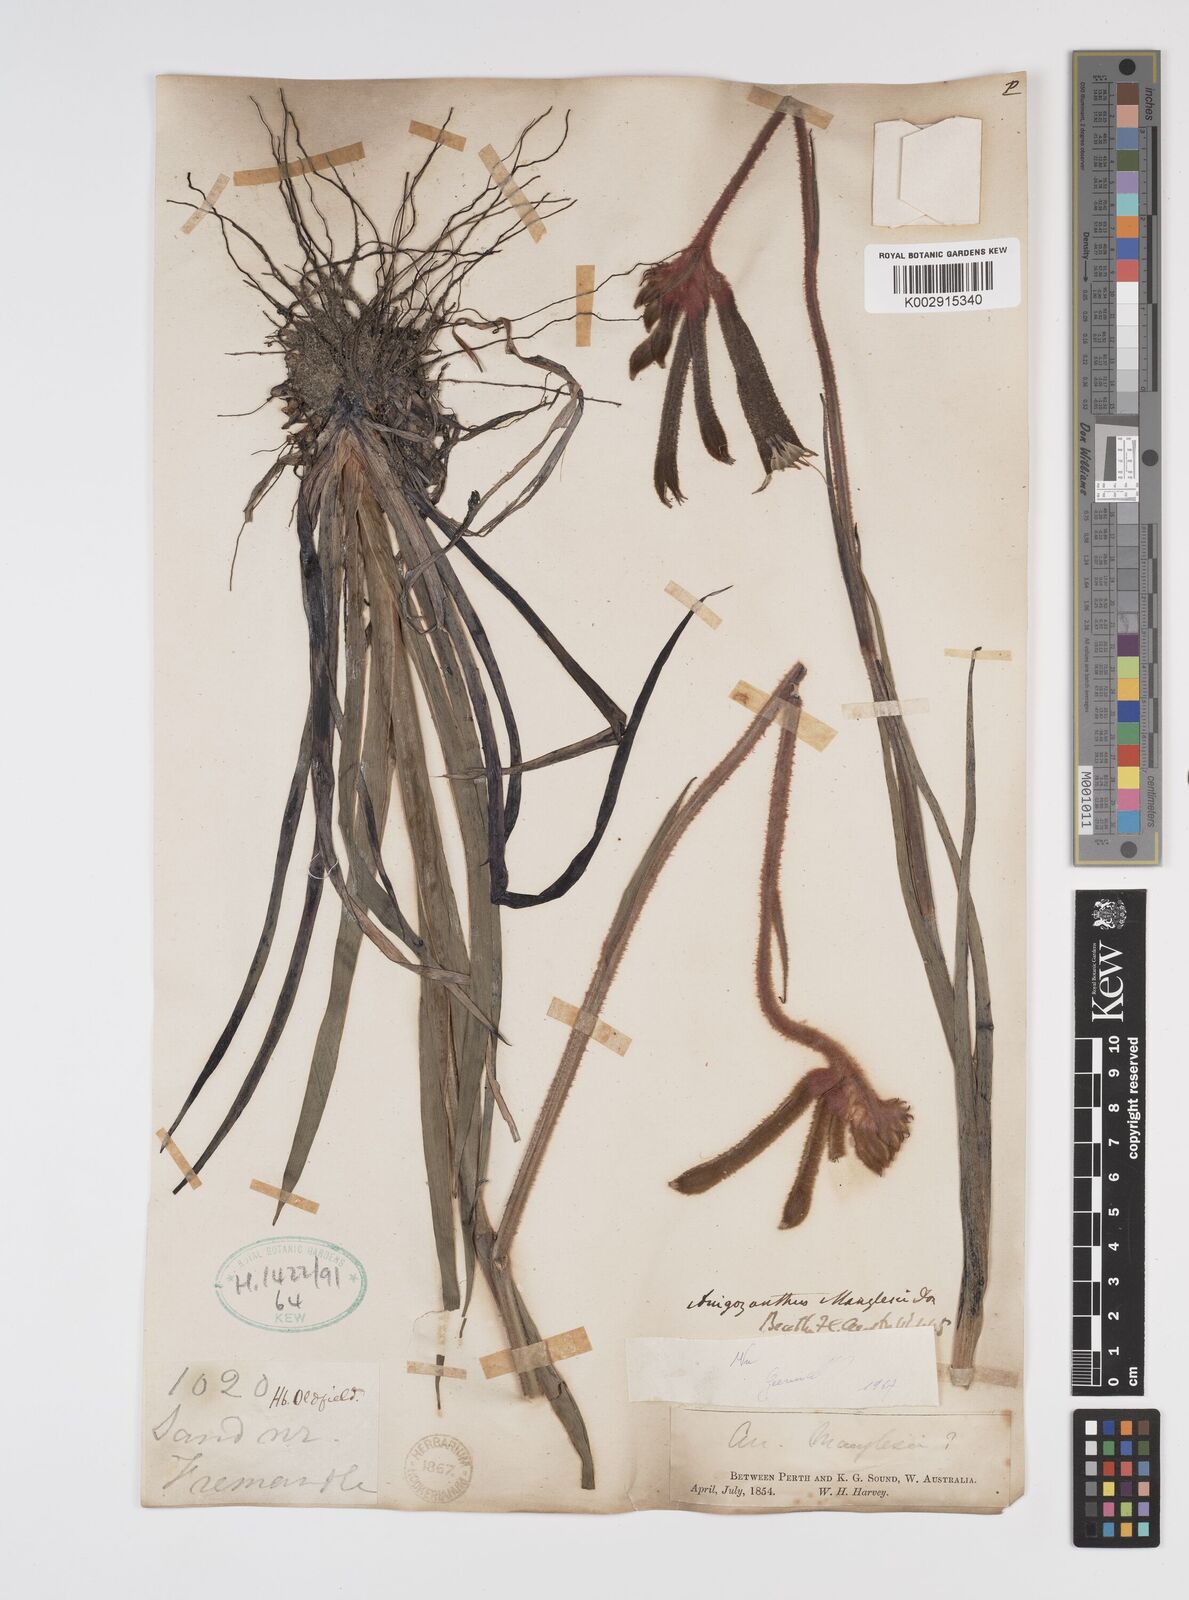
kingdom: Plantae
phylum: Tracheophyta
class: Liliopsida
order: Commelinales
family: Haemodoraceae
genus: Anigozanthos
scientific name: Anigozanthos manglesii
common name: Mangles's kangaroo-paw
